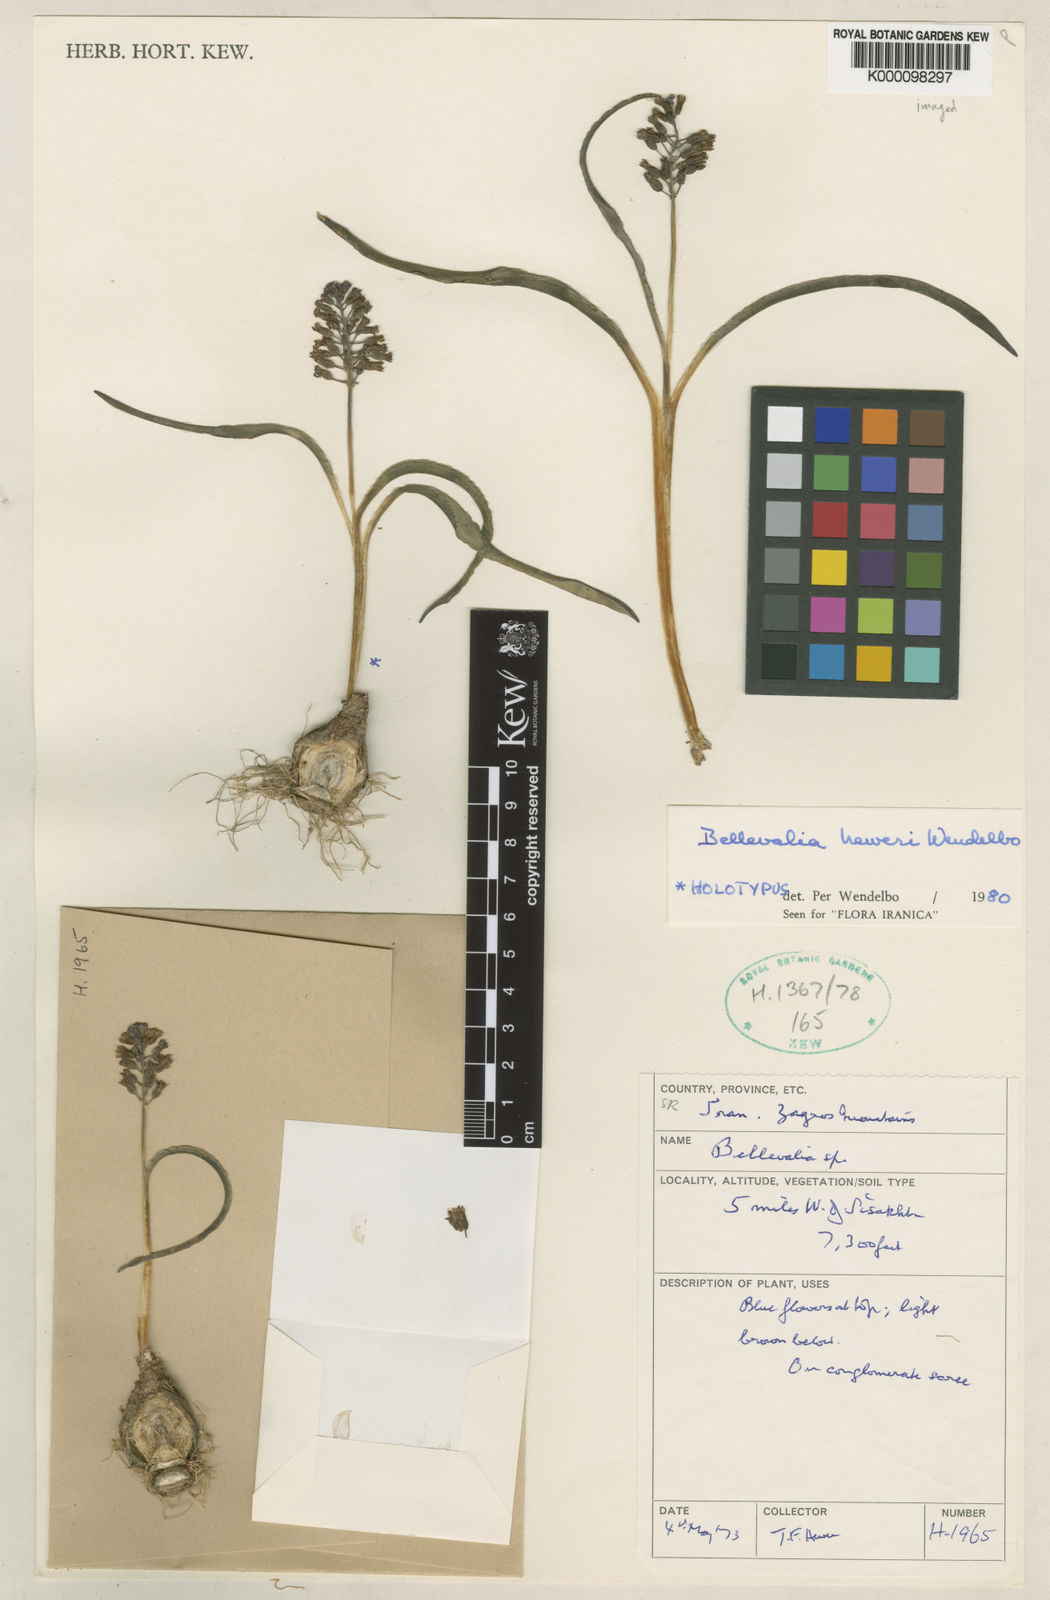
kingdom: Plantae
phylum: Tracheophyta
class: Liliopsida
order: Asparagales
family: Asparagaceae
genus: Bellevalia
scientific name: Bellevalia heweri
